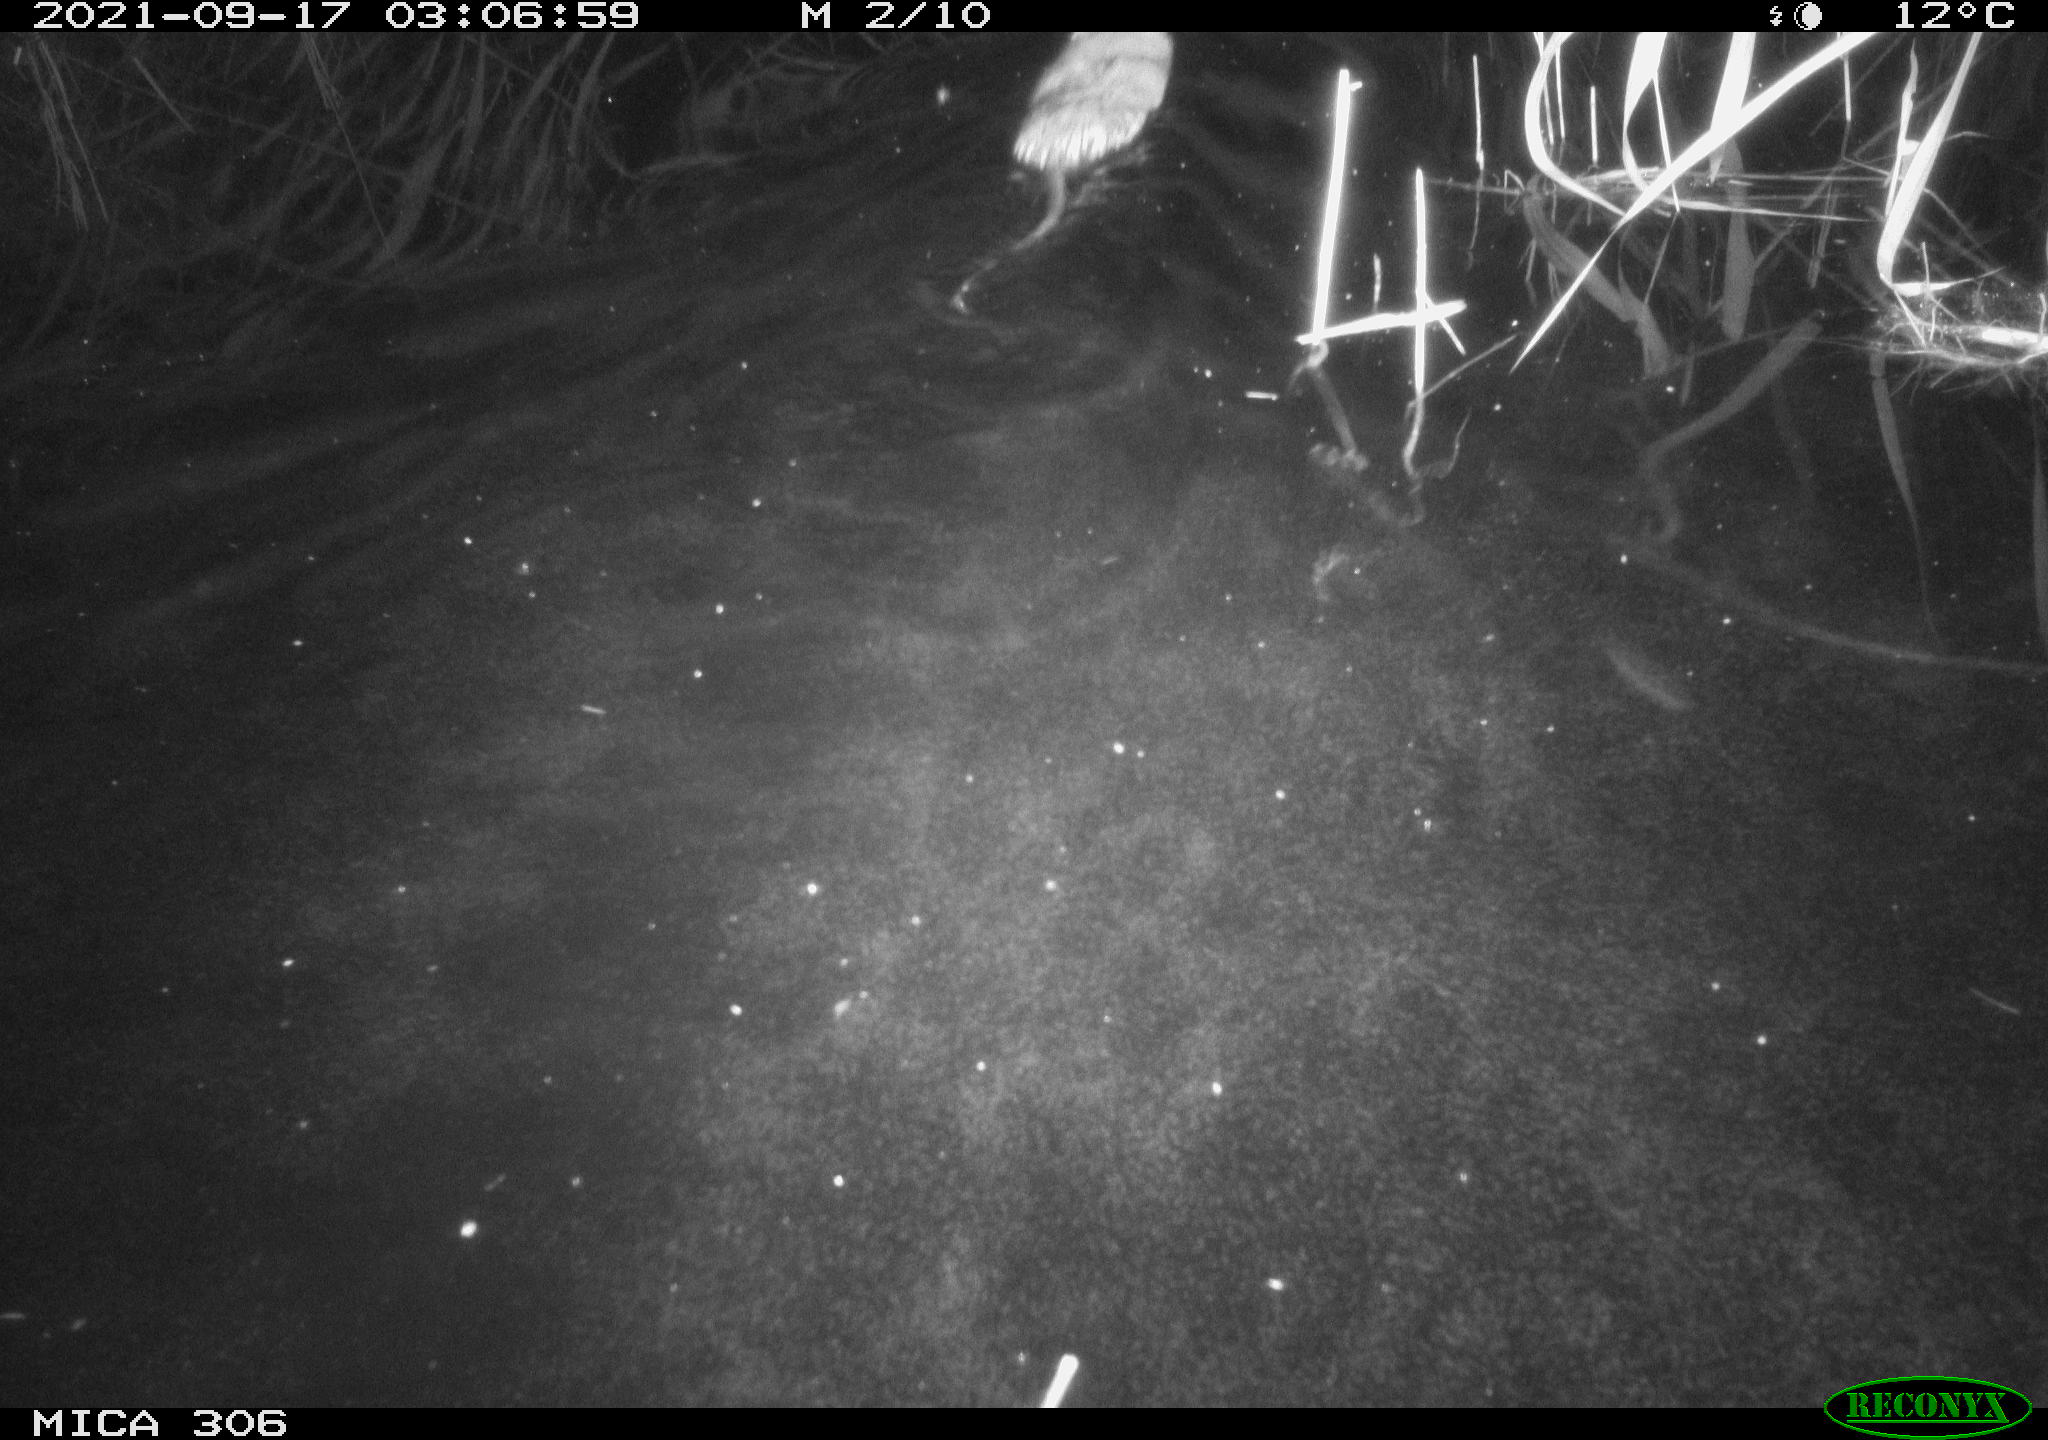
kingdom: Animalia
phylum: Chordata
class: Mammalia
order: Rodentia
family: Cricetidae
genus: Ondatra
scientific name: Ondatra zibethicus
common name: Muskrat
